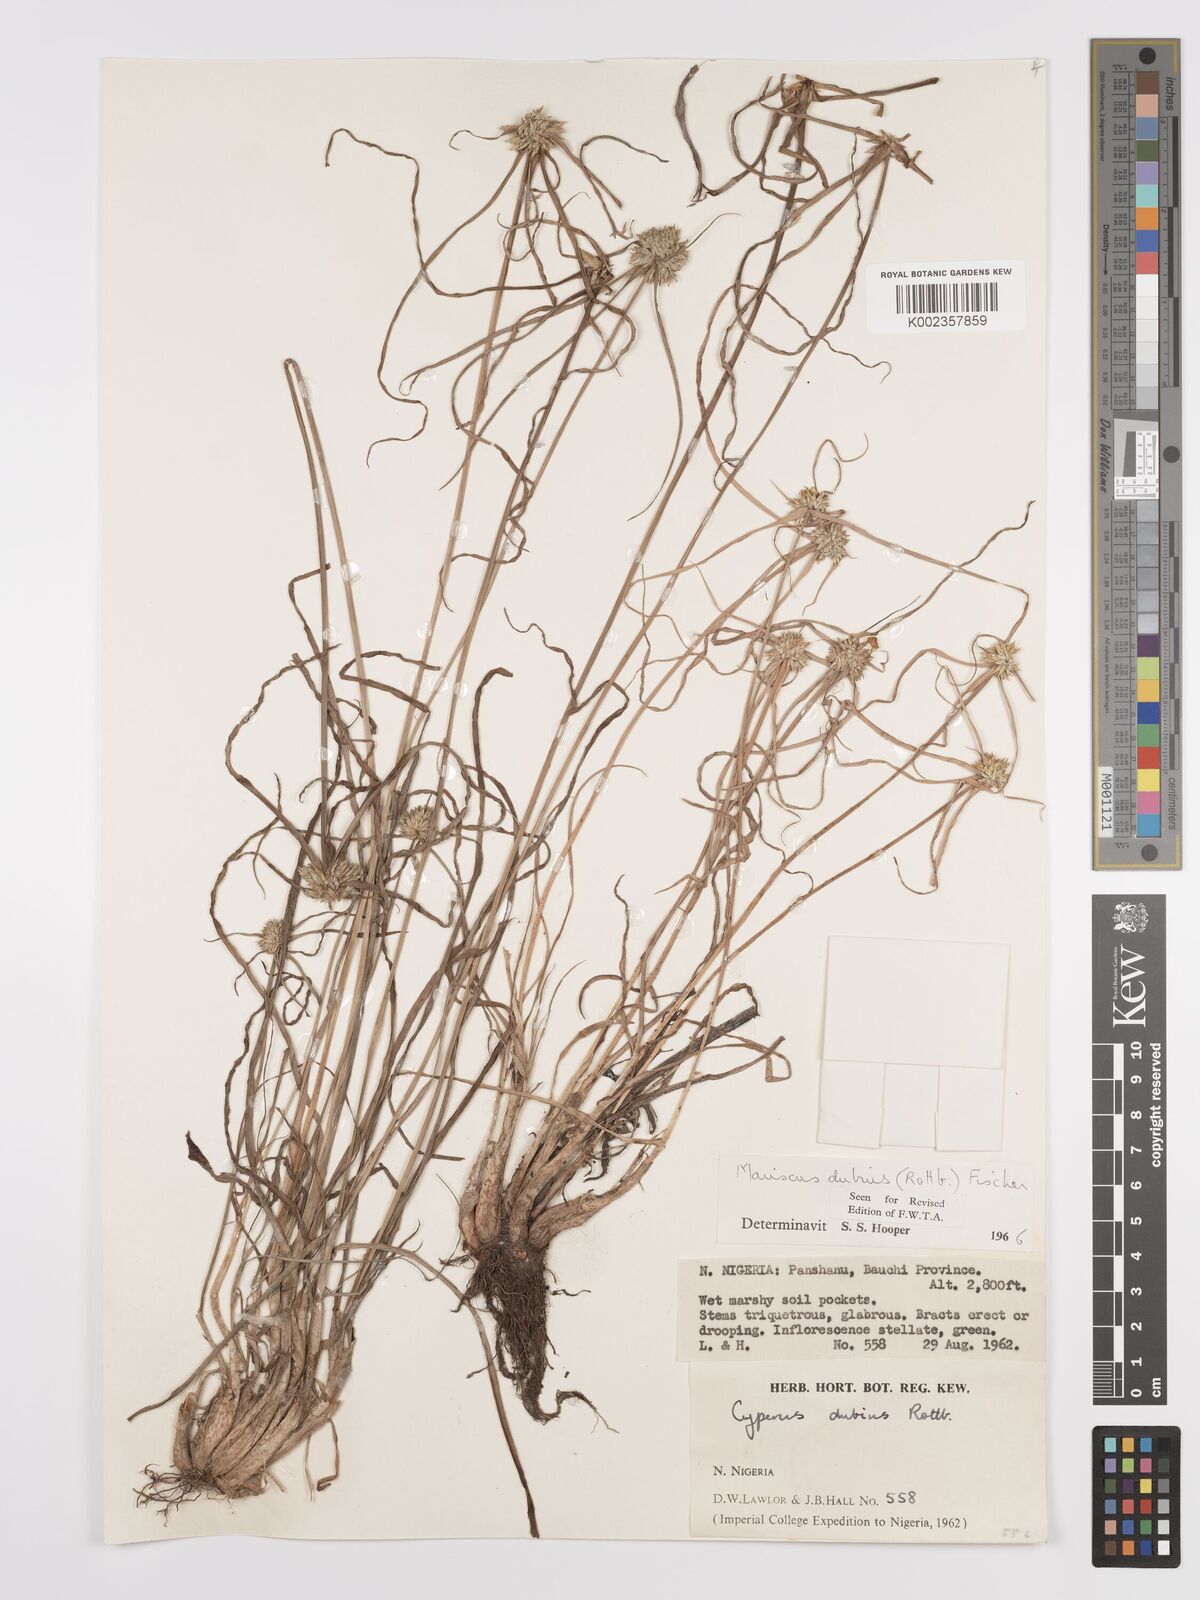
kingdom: Plantae
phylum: Tracheophyta
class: Liliopsida
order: Poales
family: Cyperaceae
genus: Cyperus
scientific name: Cyperus dubius
